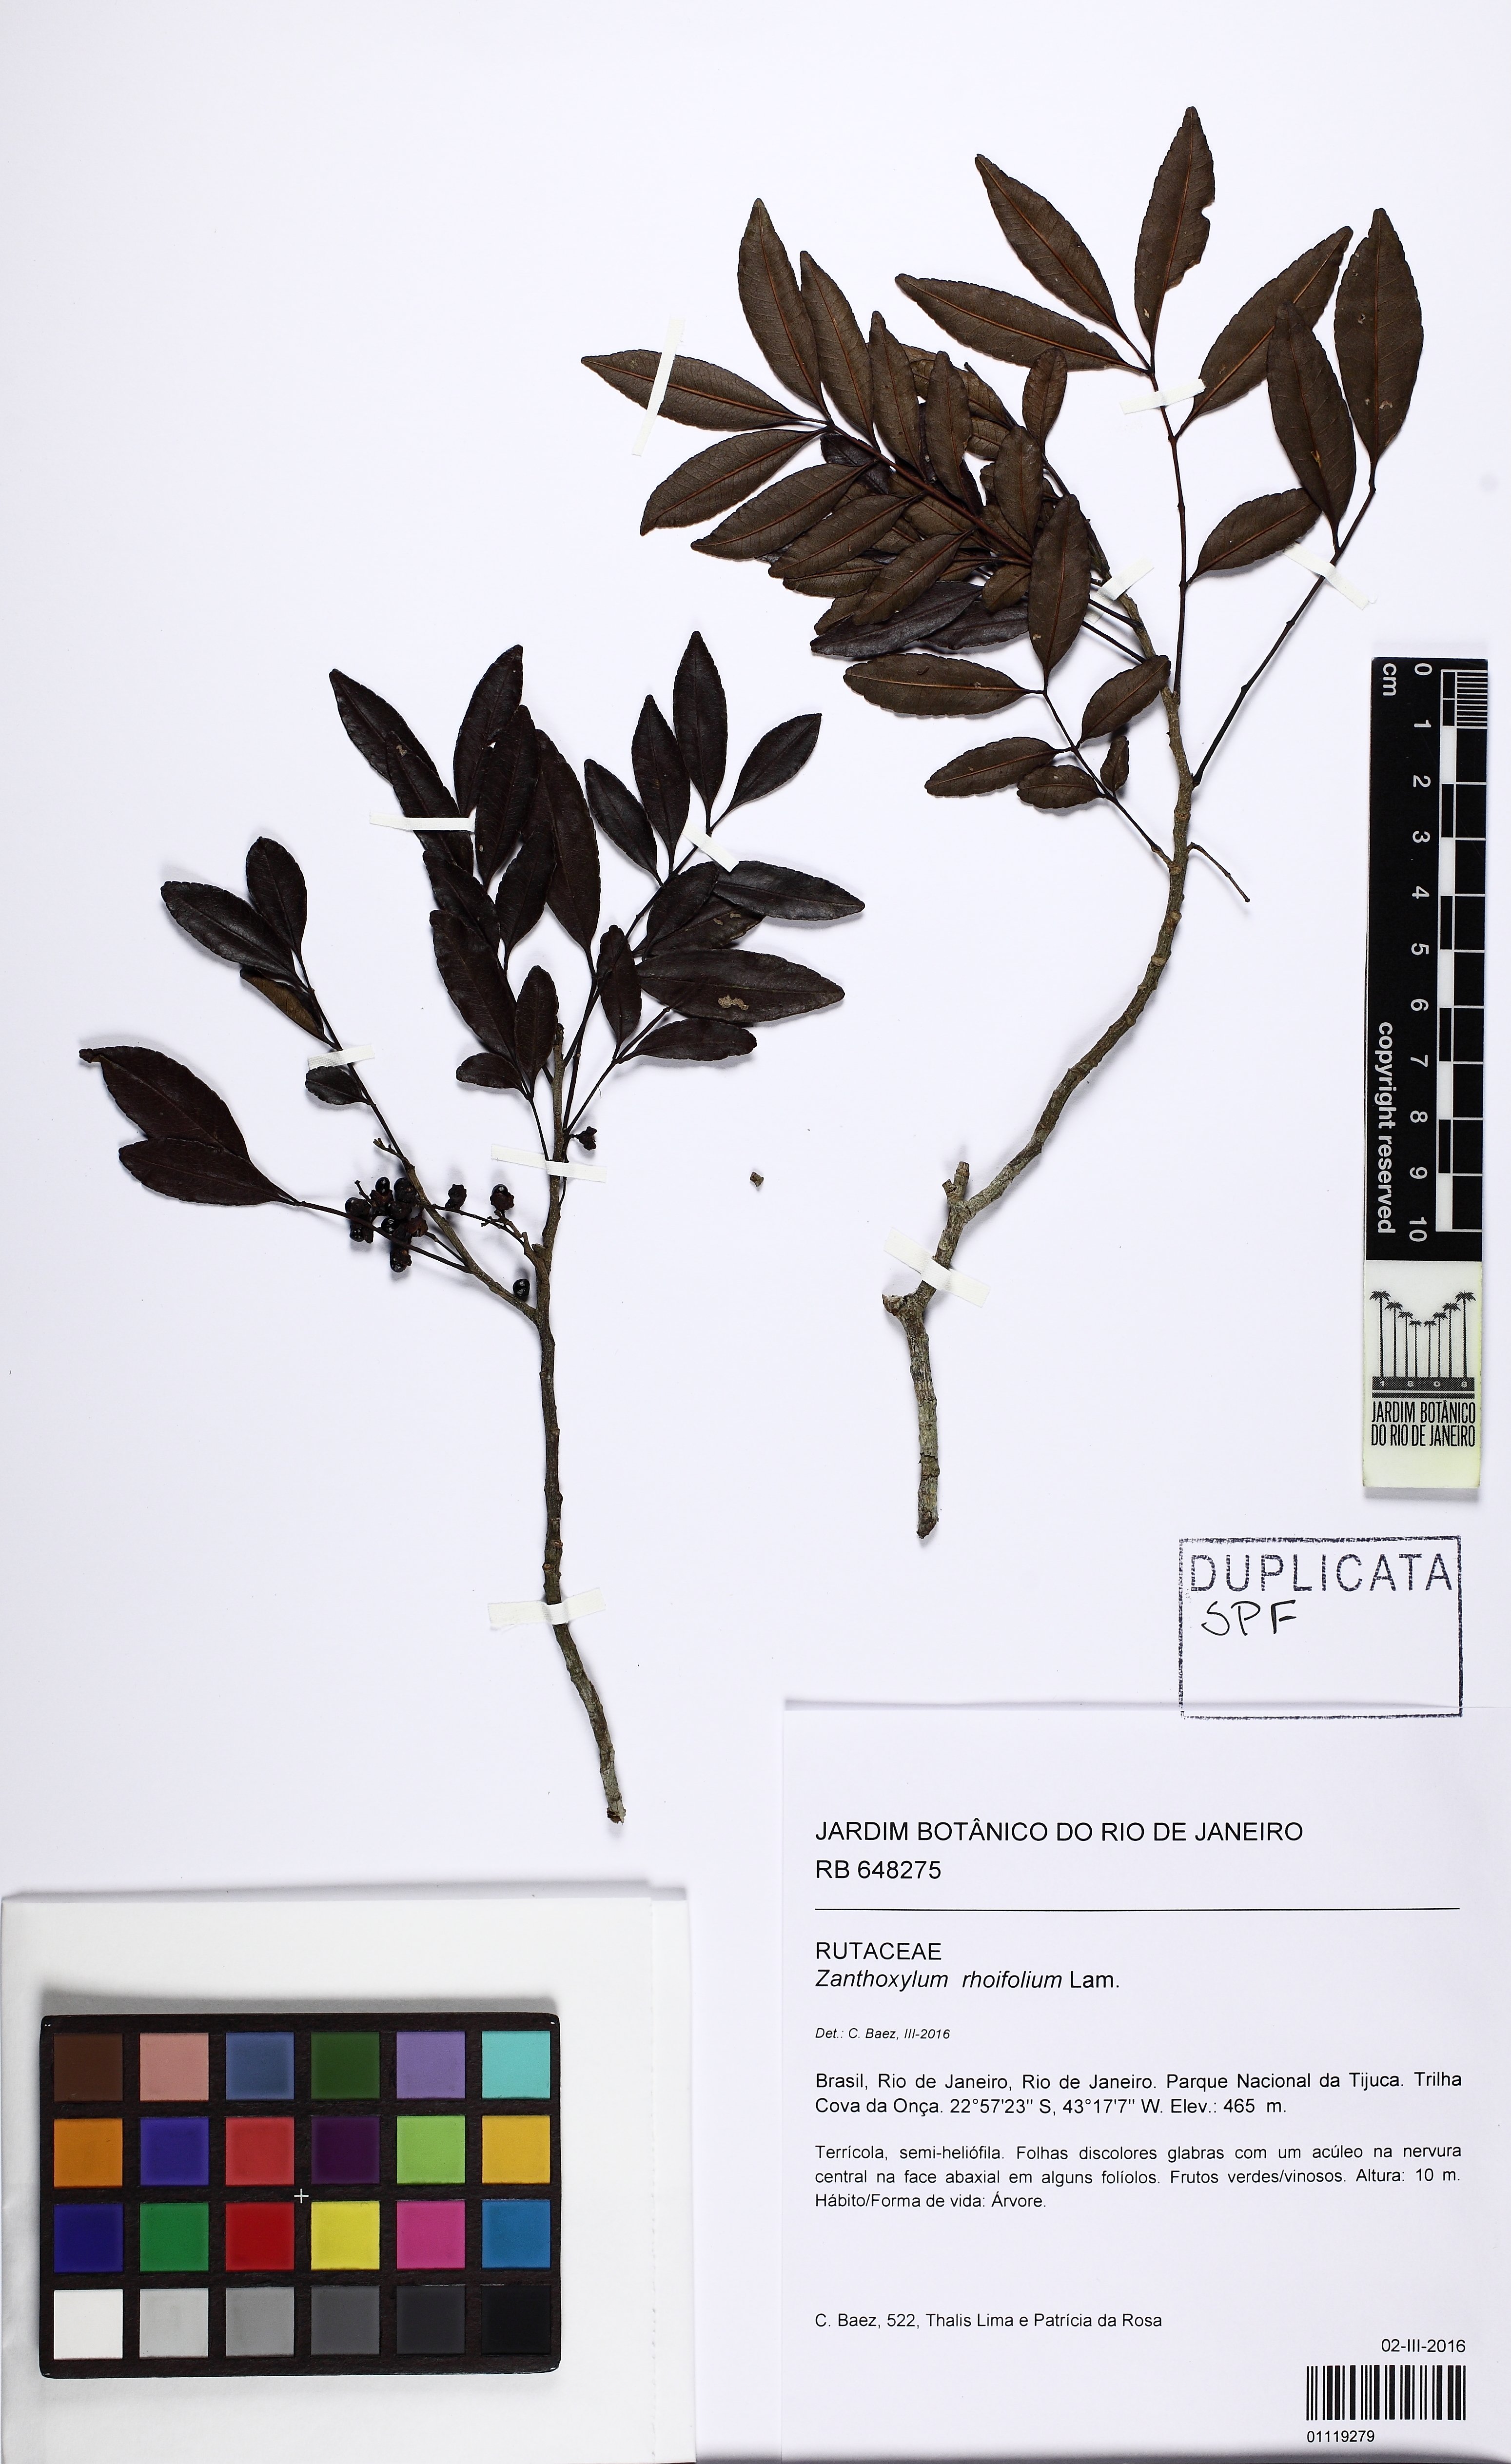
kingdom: Plantae
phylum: Tracheophyta
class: Magnoliopsida
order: Sapindales
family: Rutaceae
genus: Zanthoxylum
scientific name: Zanthoxylum rhoifolium
